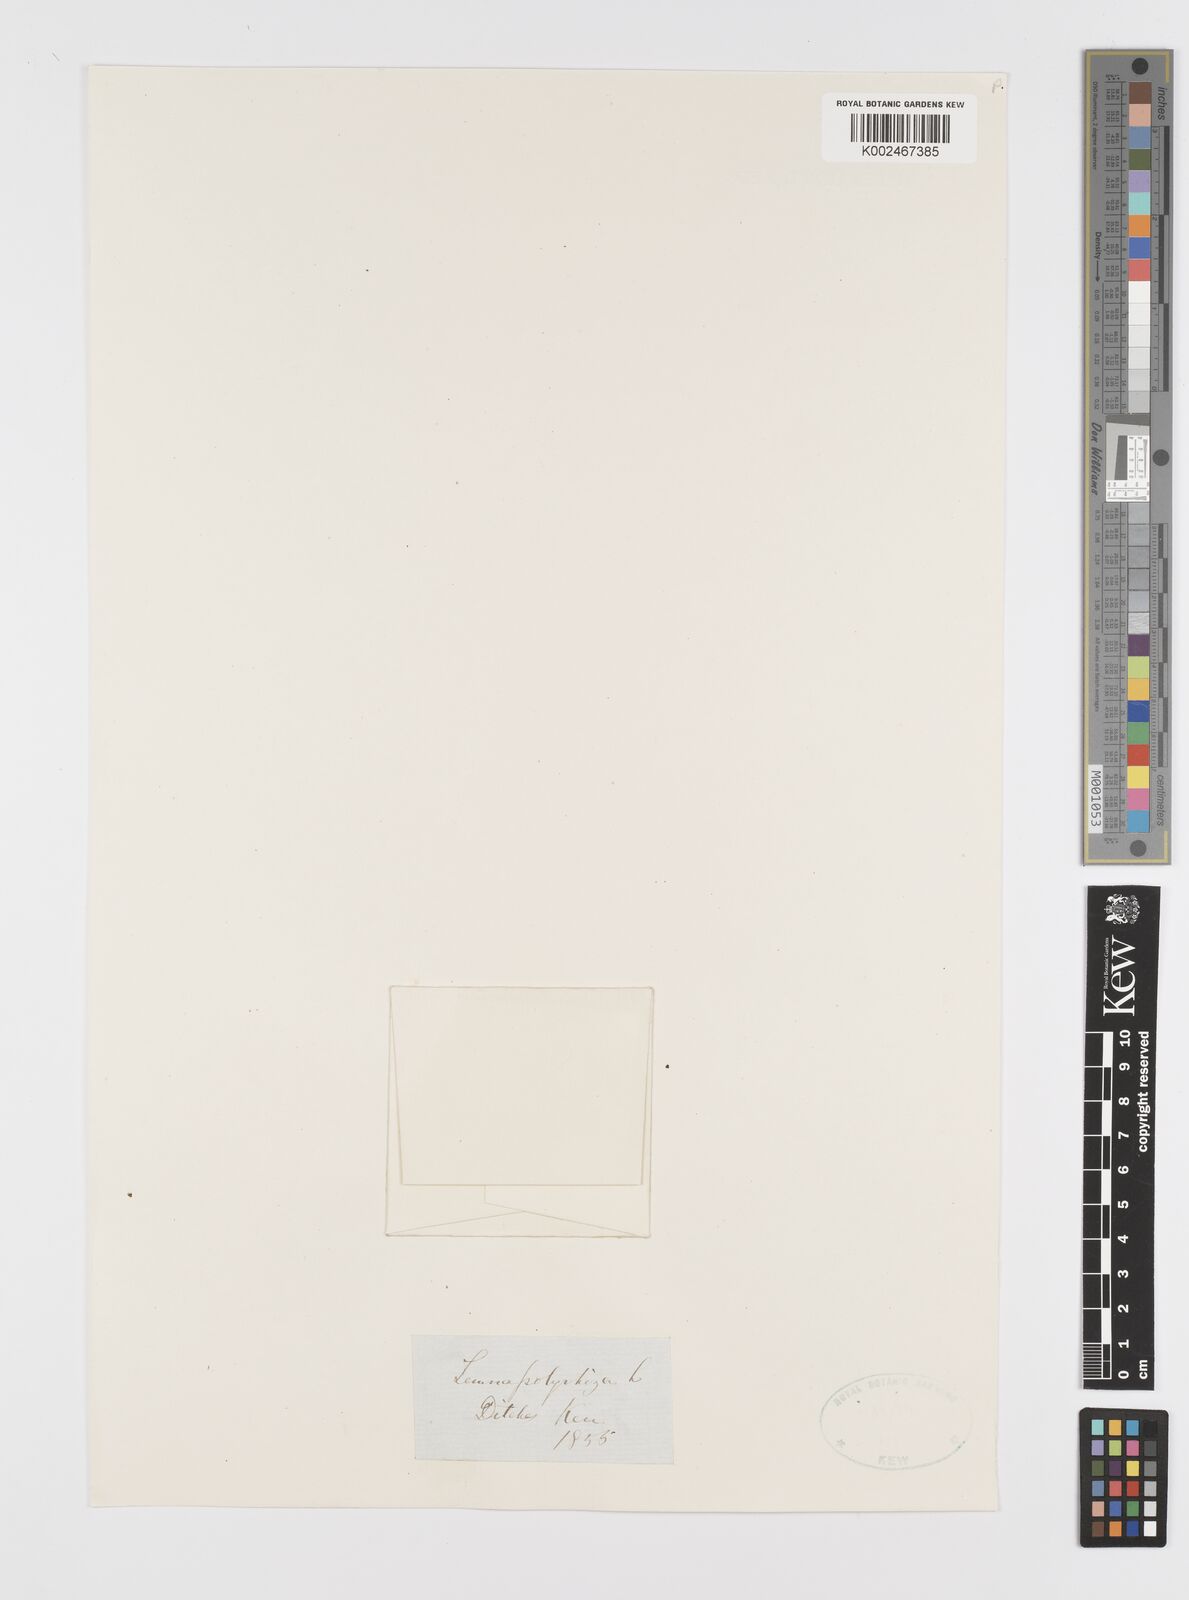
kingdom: Plantae
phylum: Tracheophyta
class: Liliopsida
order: Alismatales
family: Araceae
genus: Spirodela
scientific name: Spirodela polyrhiza
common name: Great duckweed
